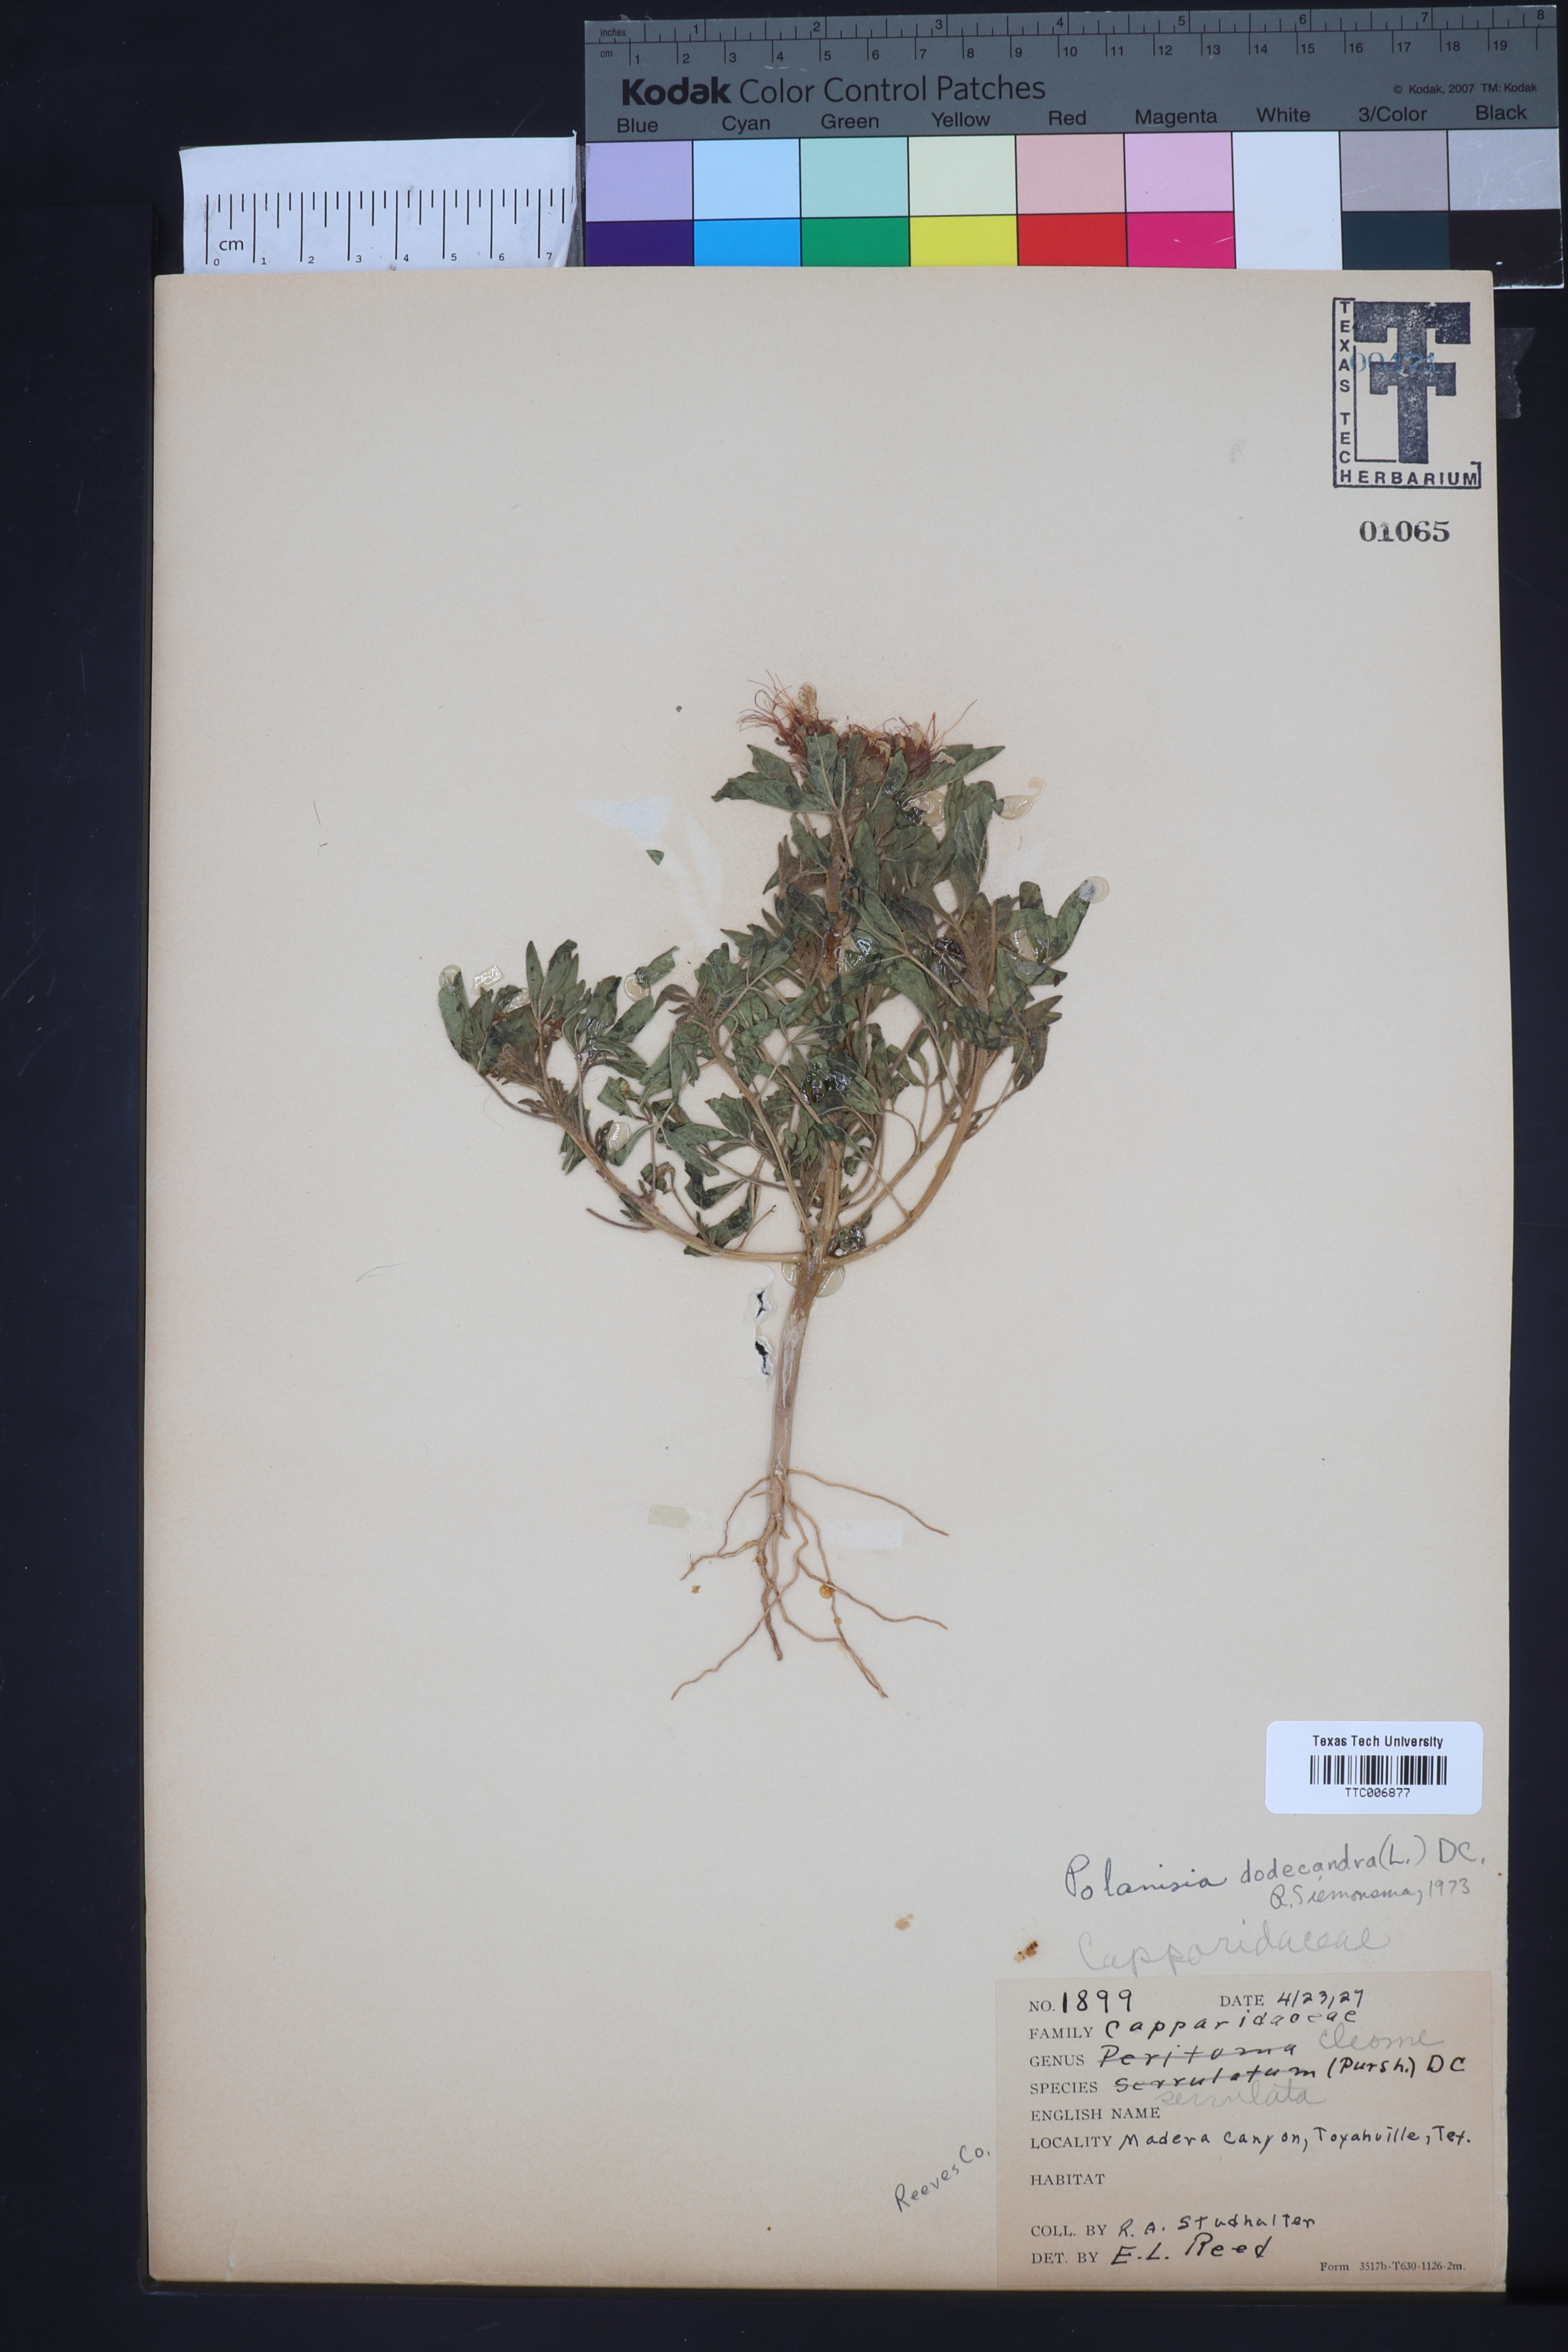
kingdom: Plantae
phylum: Tracheophyta
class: Magnoliopsida
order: Brassicales
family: Cleomaceae
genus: Polanisia
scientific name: Polanisia trachysperma
